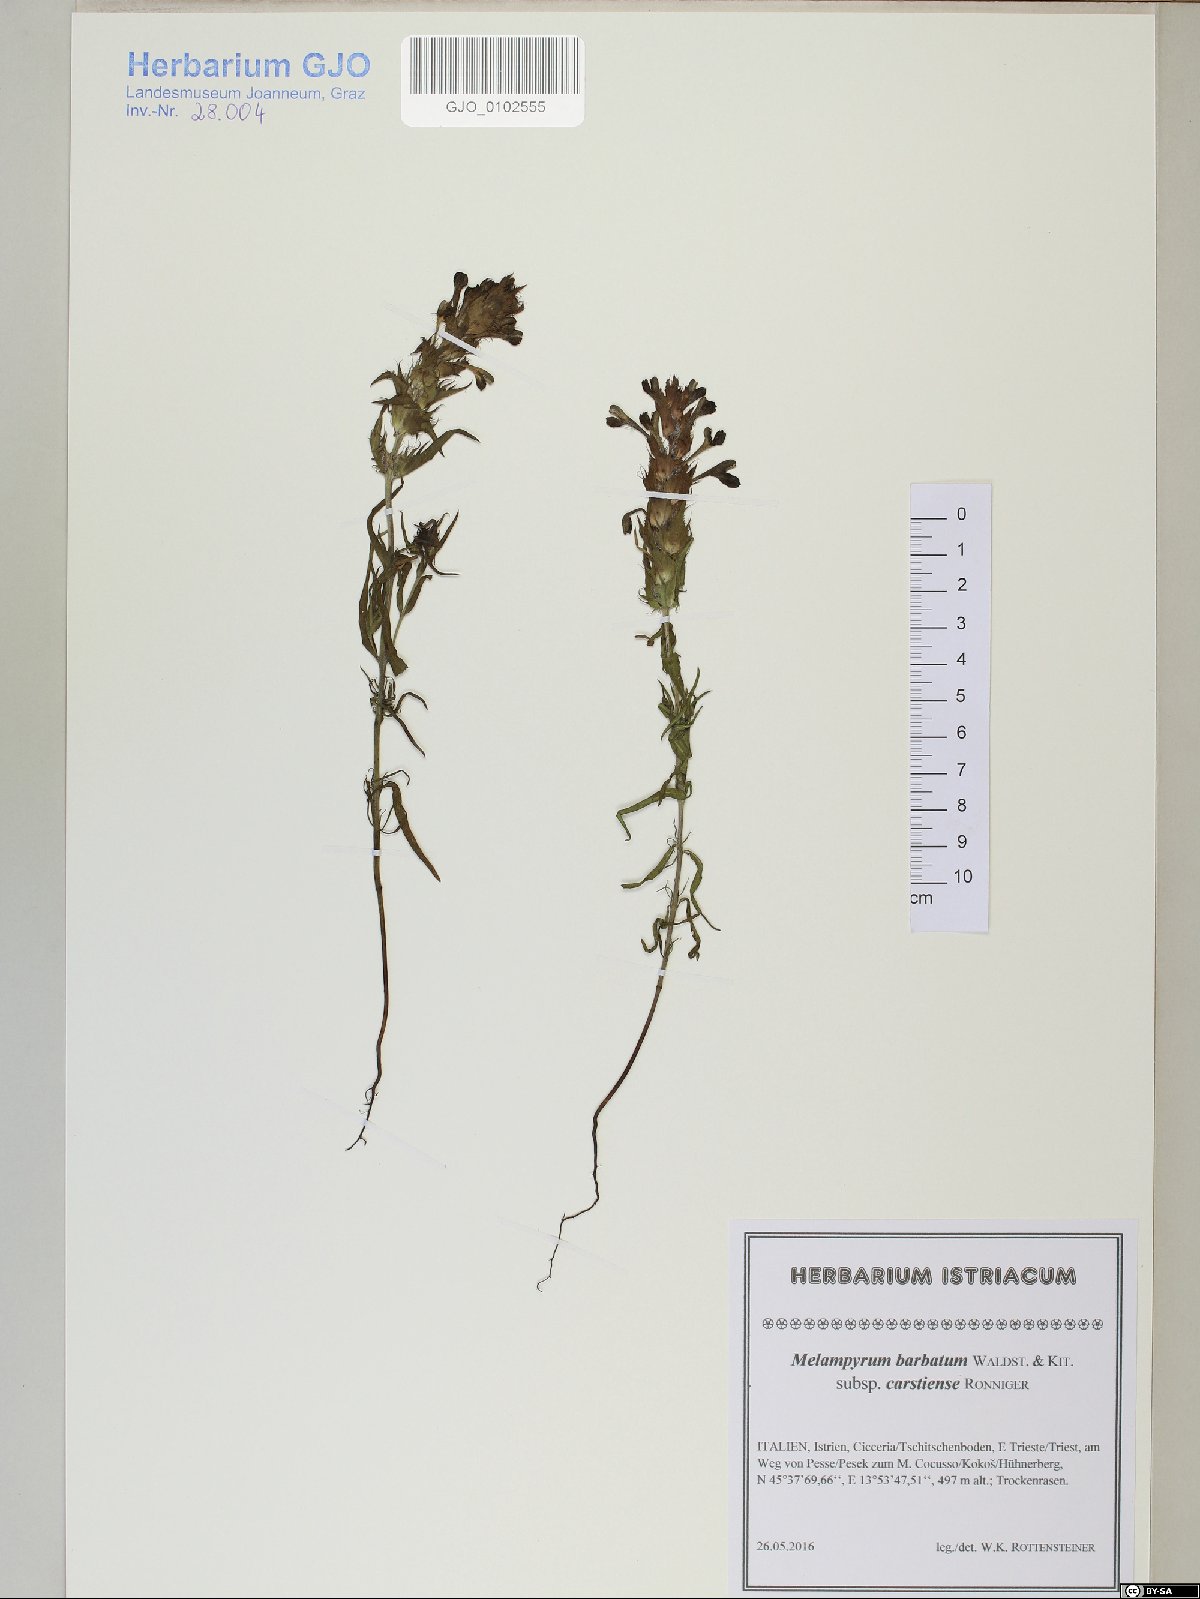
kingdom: Plantae
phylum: Tracheophyta
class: Magnoliopsida
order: Lamiales
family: Orobanchaceae
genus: Melampyrum
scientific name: Melampyrum barbatum
